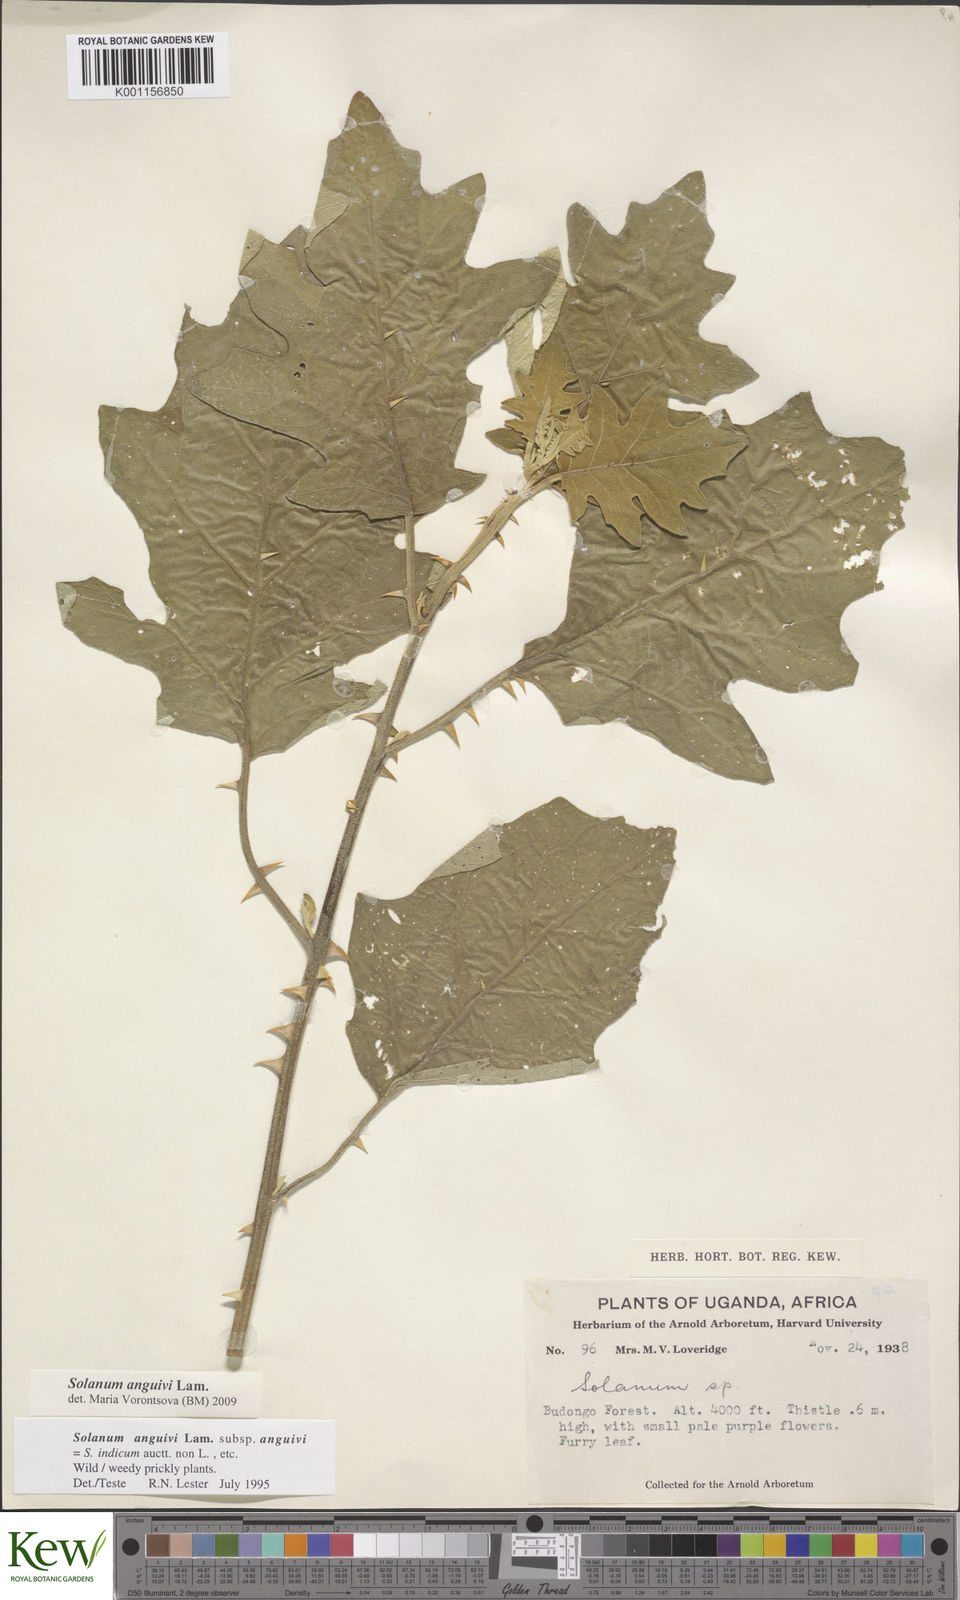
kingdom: Plantae
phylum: Tracheophyta
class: Magnoliopsida
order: Solanales
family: Solanaceae
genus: Solanum
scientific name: Solanum anguivi
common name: Forest bitterberry
